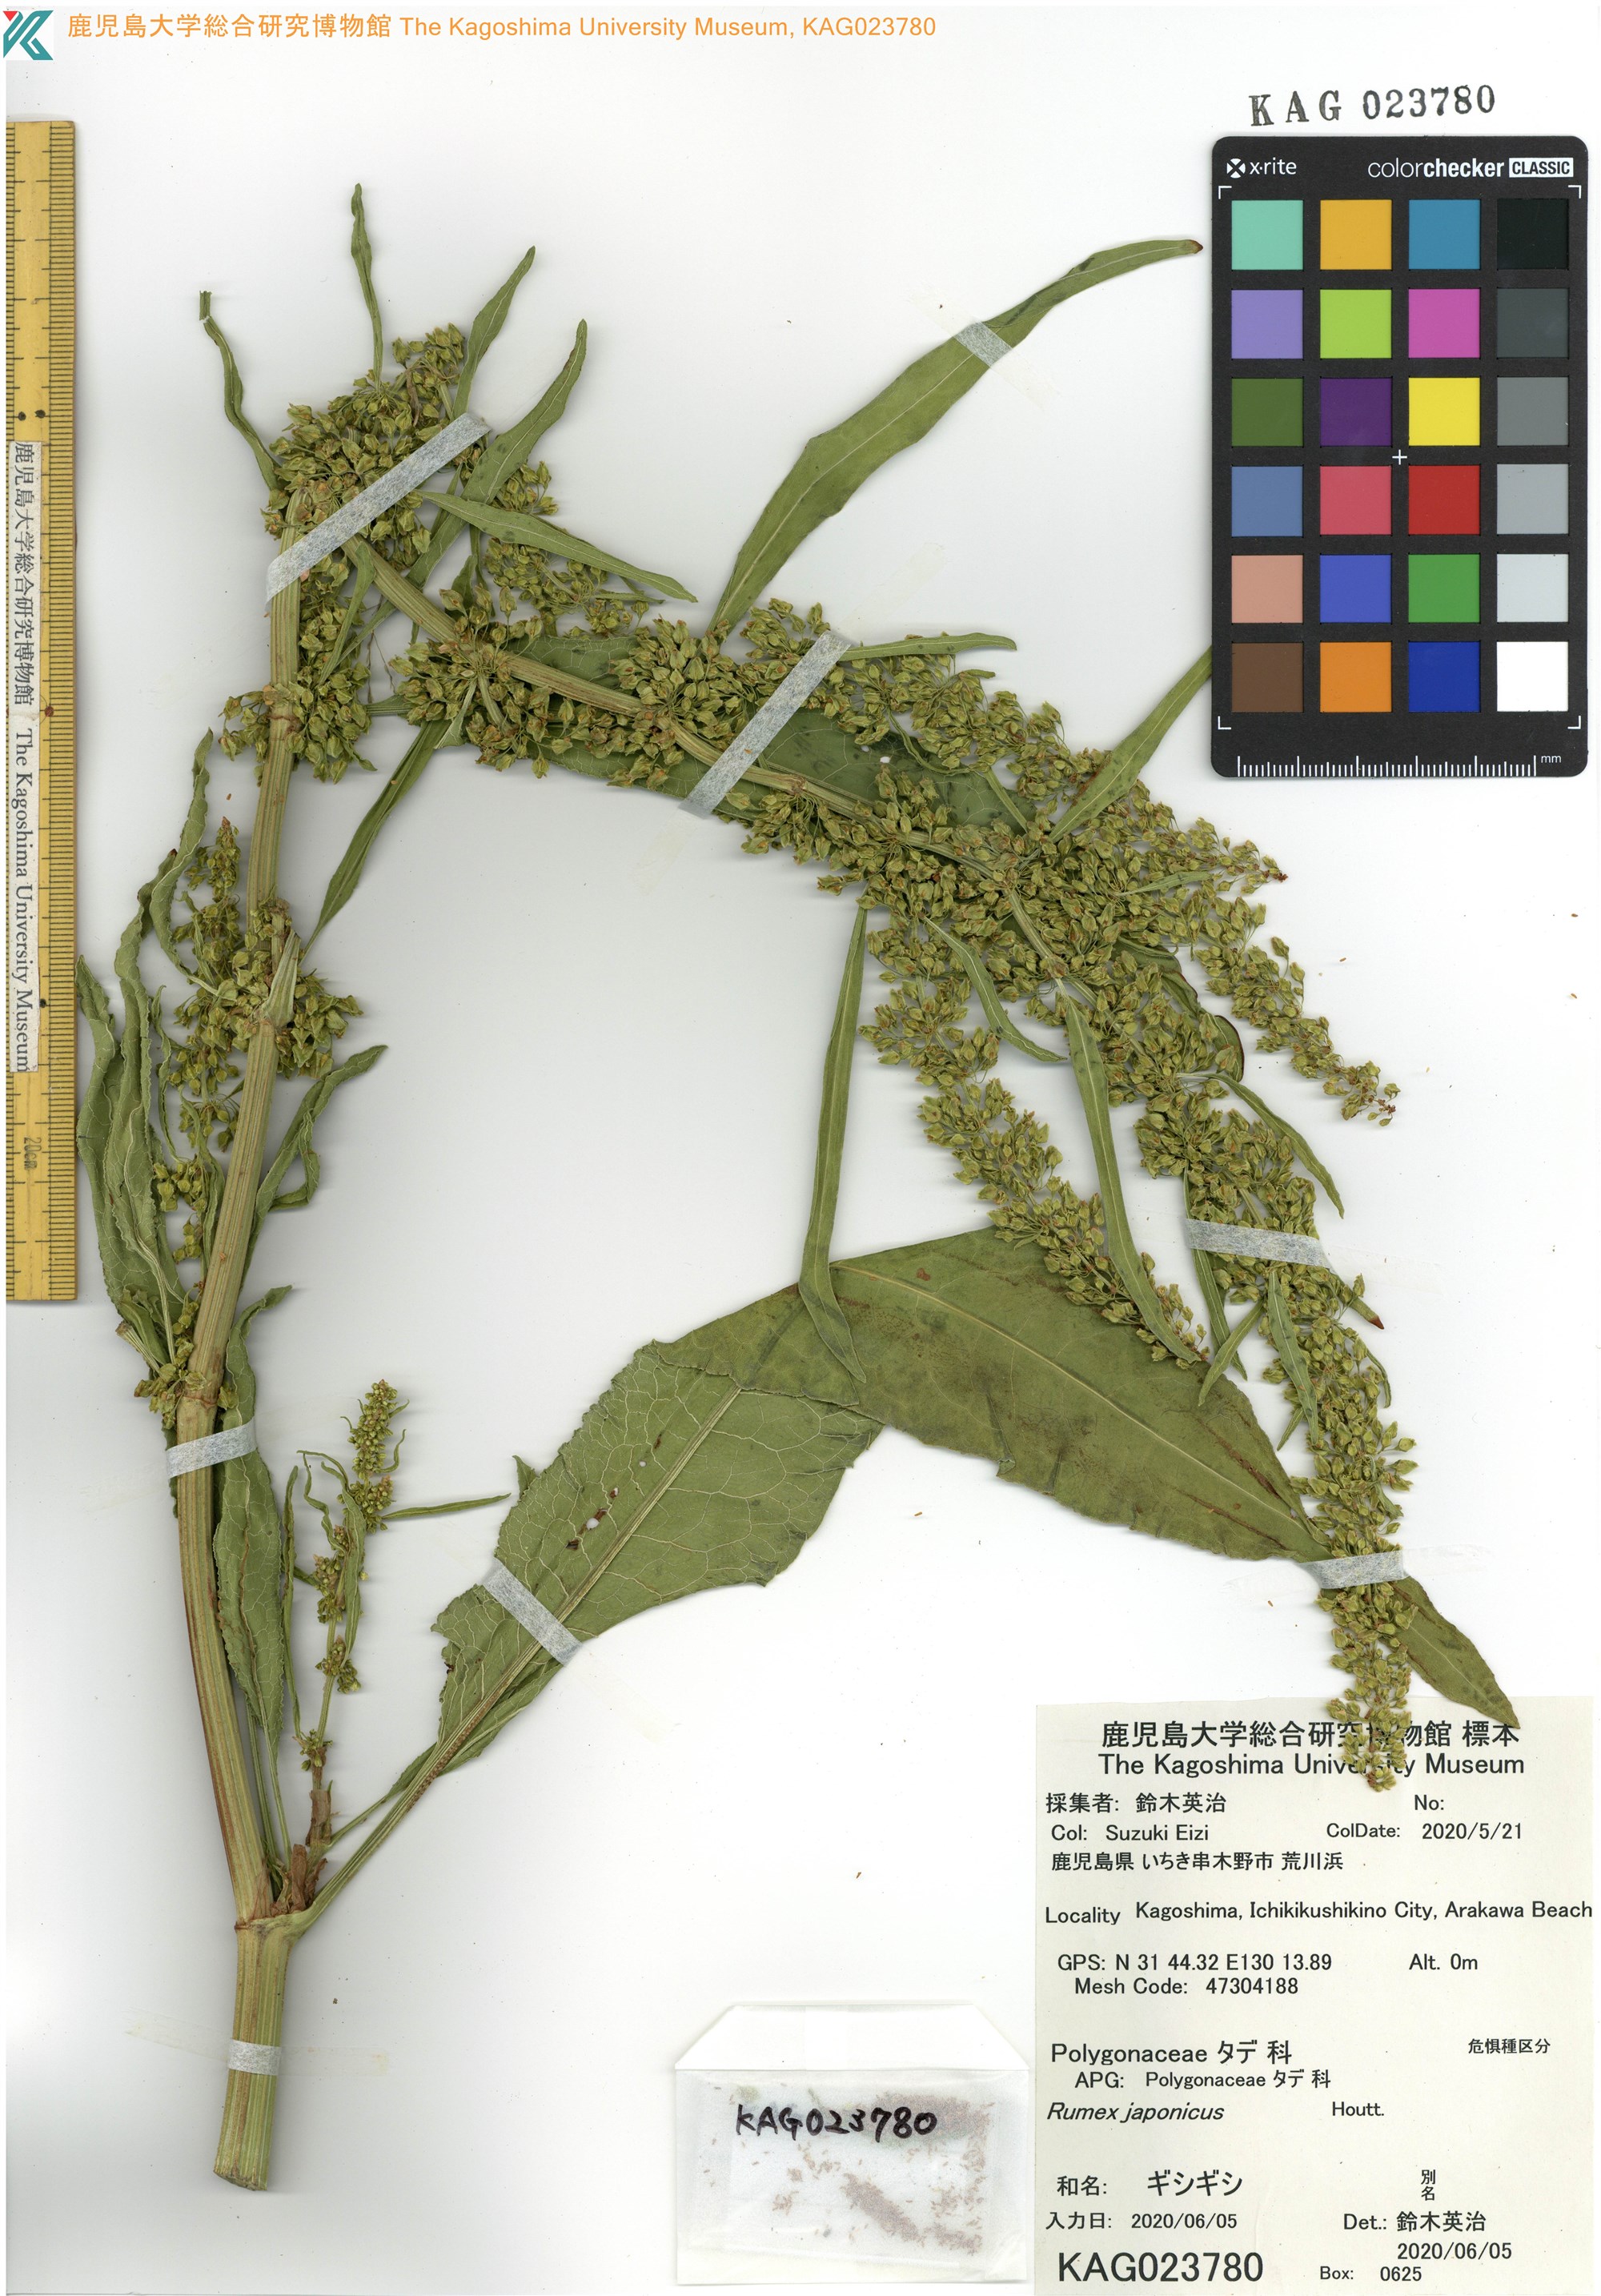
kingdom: Plantae
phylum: Tracheophyta
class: Magnoliopsida
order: Caryophyllales
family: Polygonaceae
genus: Rumex
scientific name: Rumex japonicus
